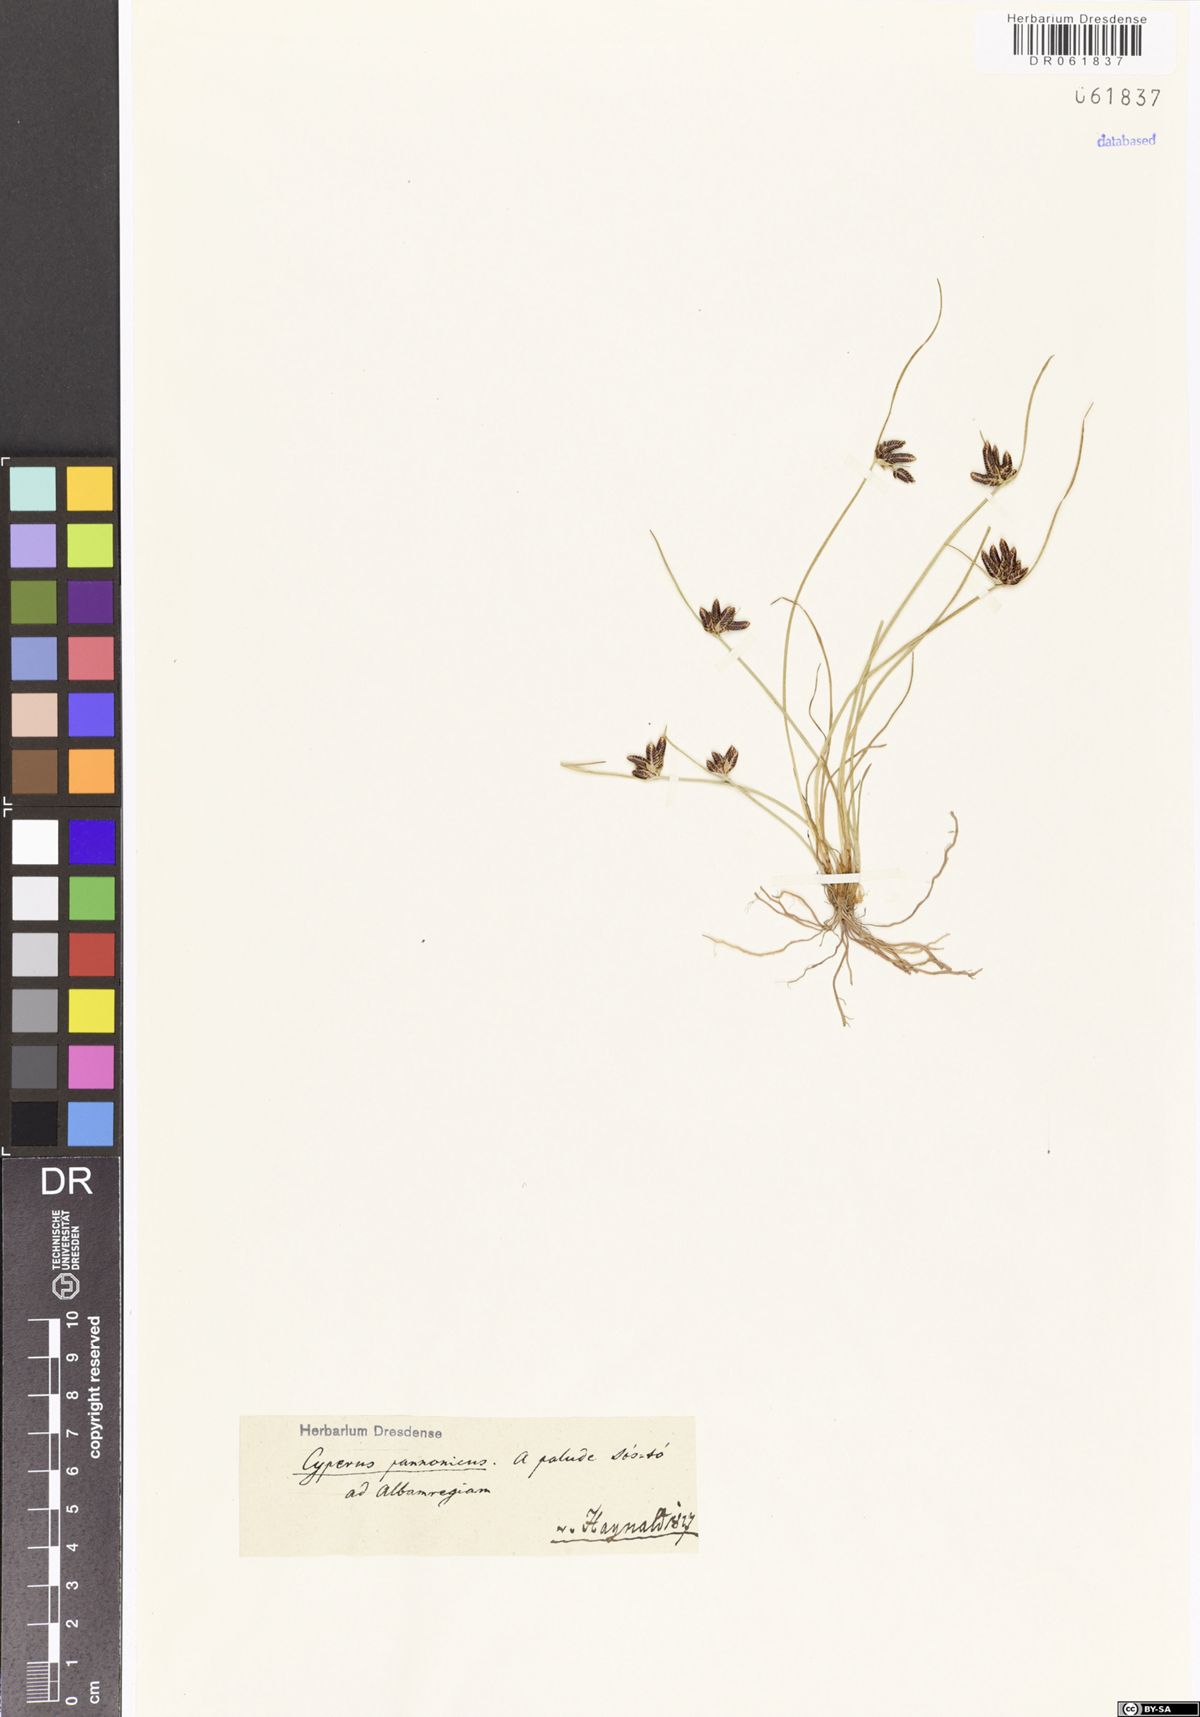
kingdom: Plantae
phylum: Tracheophyta
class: Liliopsida
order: Poales
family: Cyperaceae
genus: Cyperus
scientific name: Cyperus pannonicus
